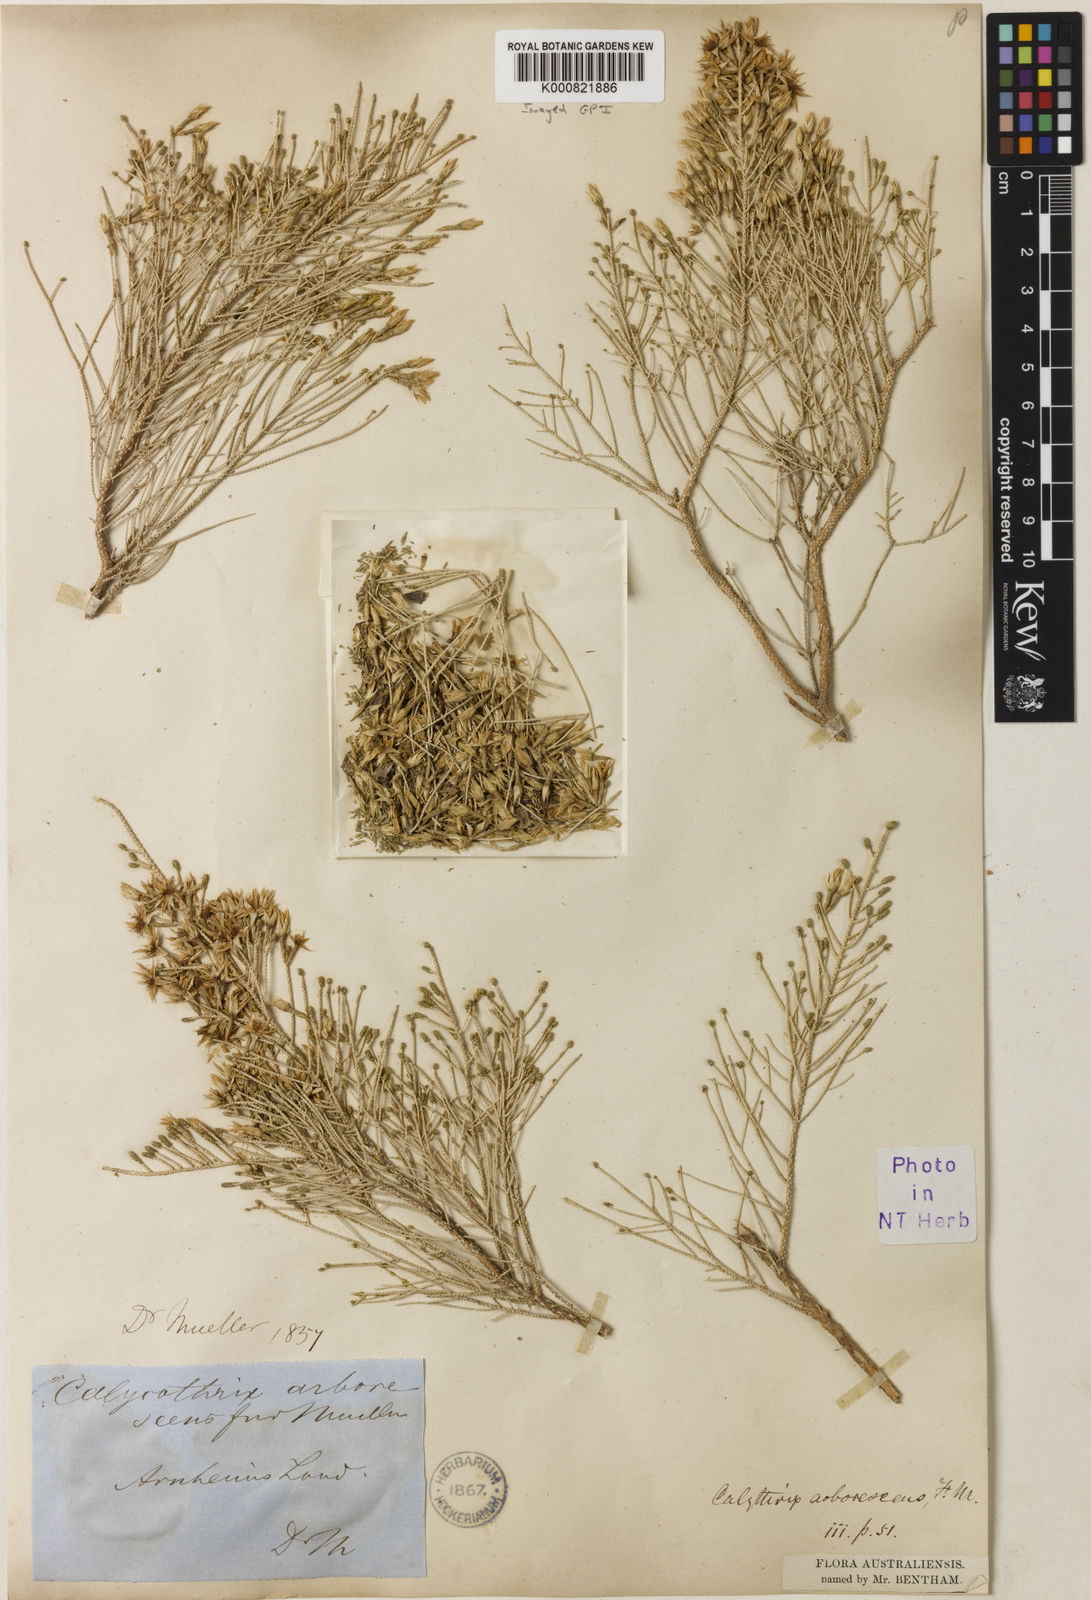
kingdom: Plantae
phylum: Tracheophyta
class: Magnoliopsida
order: Myrtales
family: Myrtaceae
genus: Calytrix
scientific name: Calytrix arborescens
